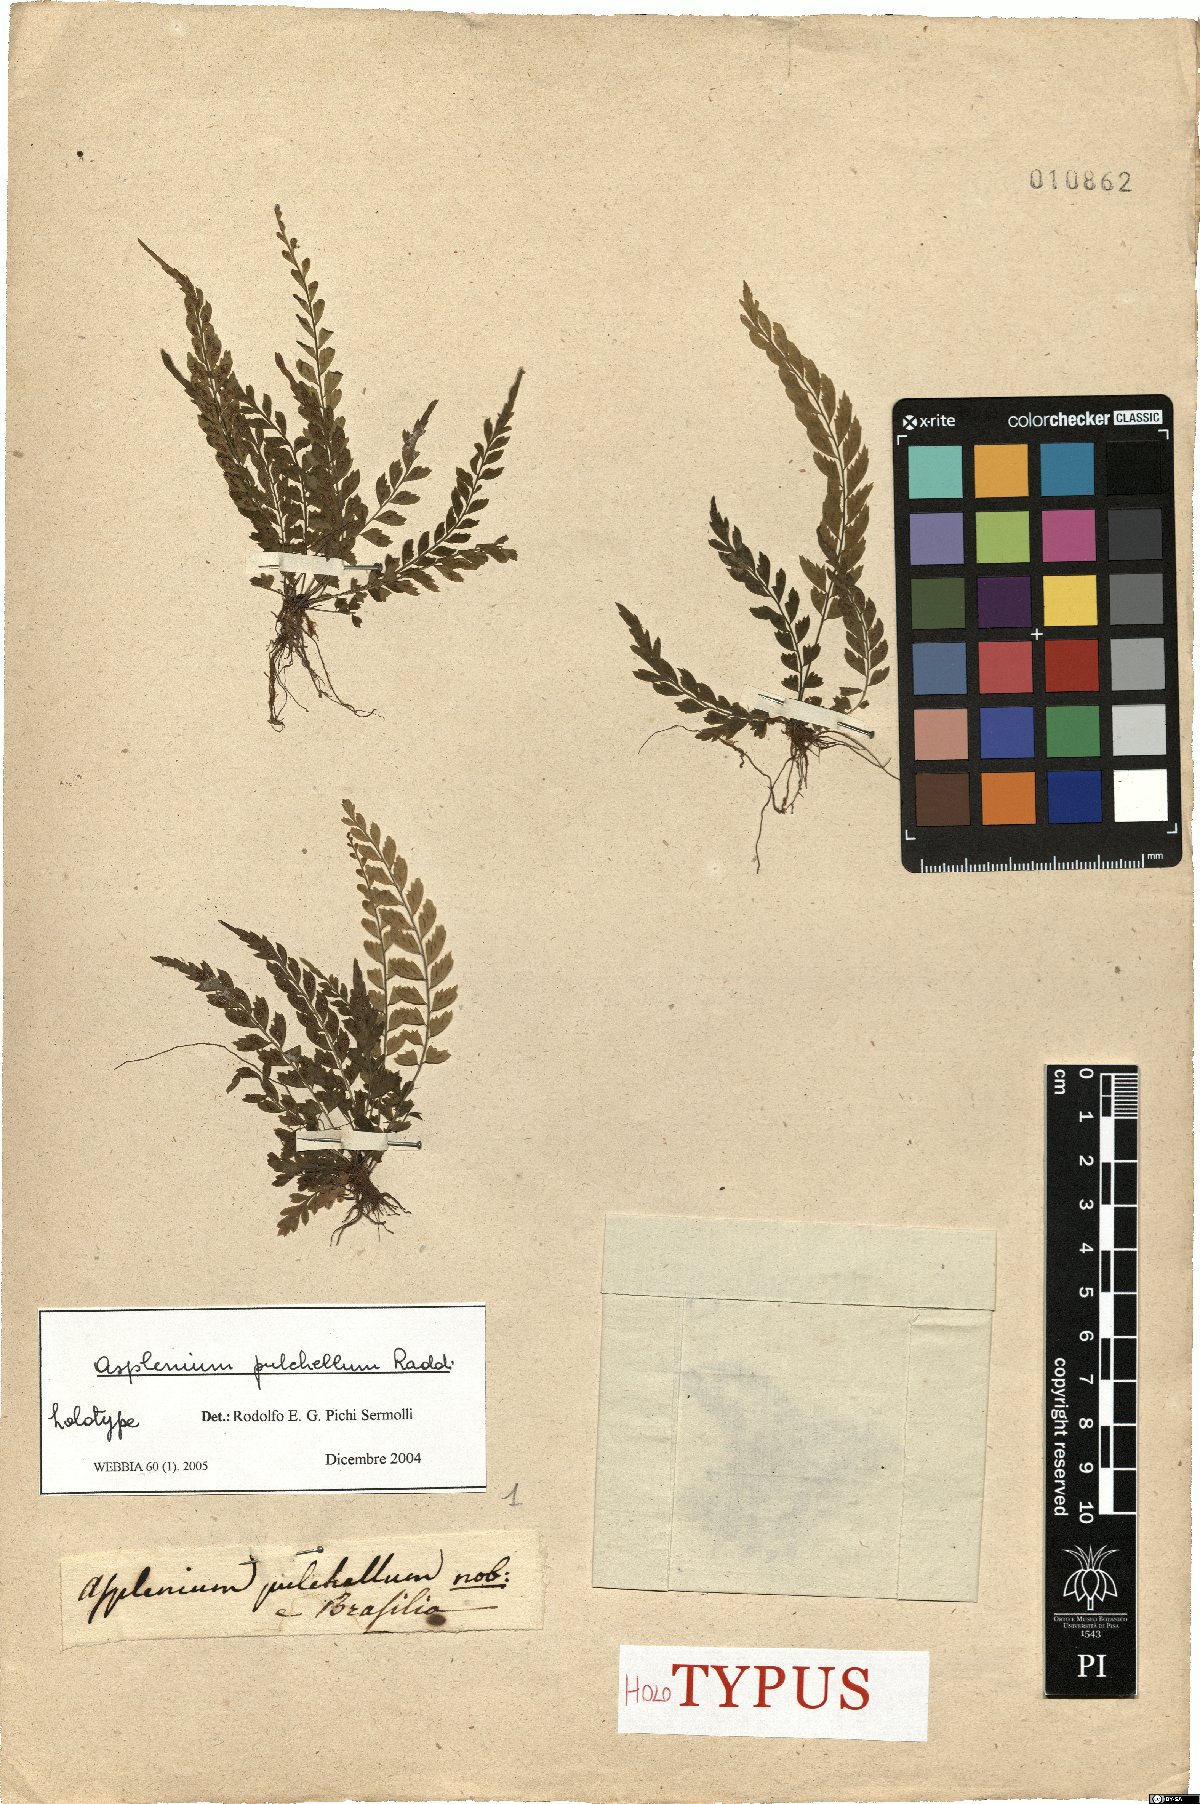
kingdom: Plantae
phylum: Tracheophyta
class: Polypodiopsida
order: Polypodiales
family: Aspleniaceae
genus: Asplenium
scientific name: Asplenium pulchellum
